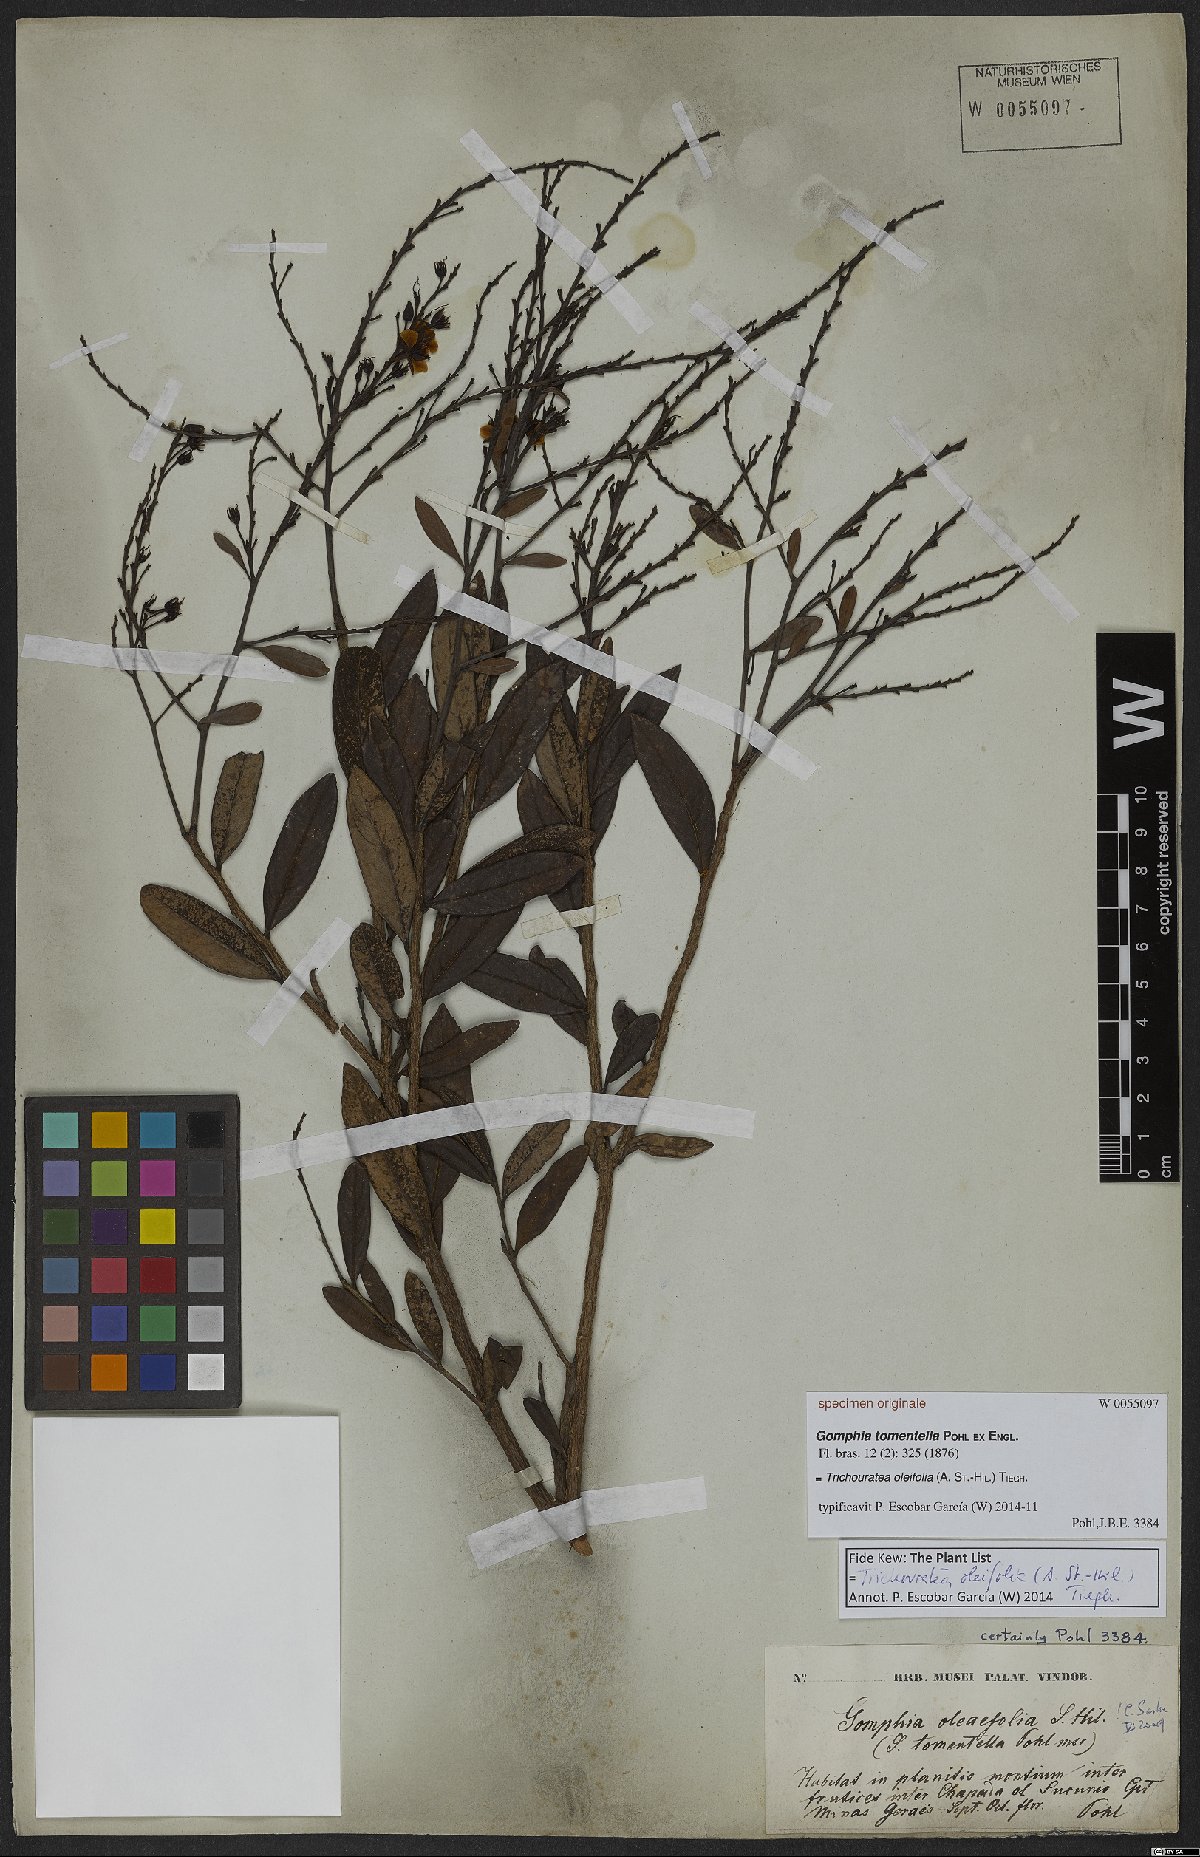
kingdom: Plantae
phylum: Tracheophyta
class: Magnoliopsida
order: Malpighiales
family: Ochnaceae
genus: Ouratea
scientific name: Ouratea oleifolia
